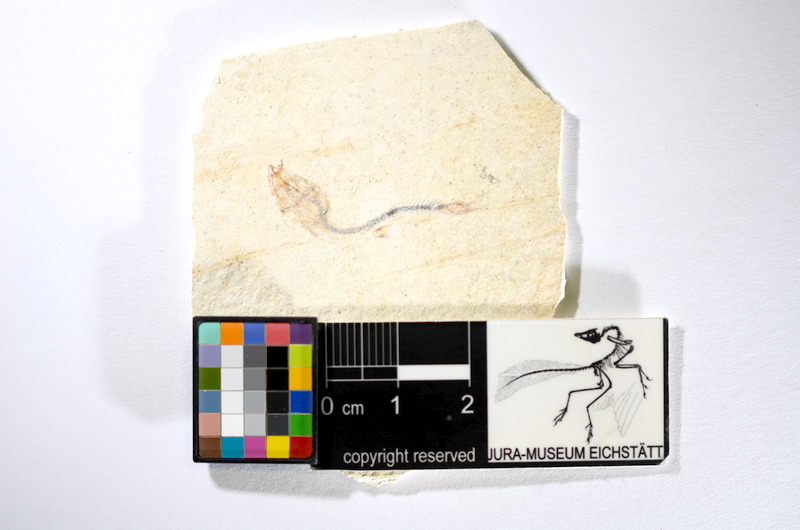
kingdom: Animalia
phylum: Chordata
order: Salmoniformes
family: Orthogonikleithridae
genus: Orthogonikleithrus
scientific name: Orthogonikleithrus hoelli
